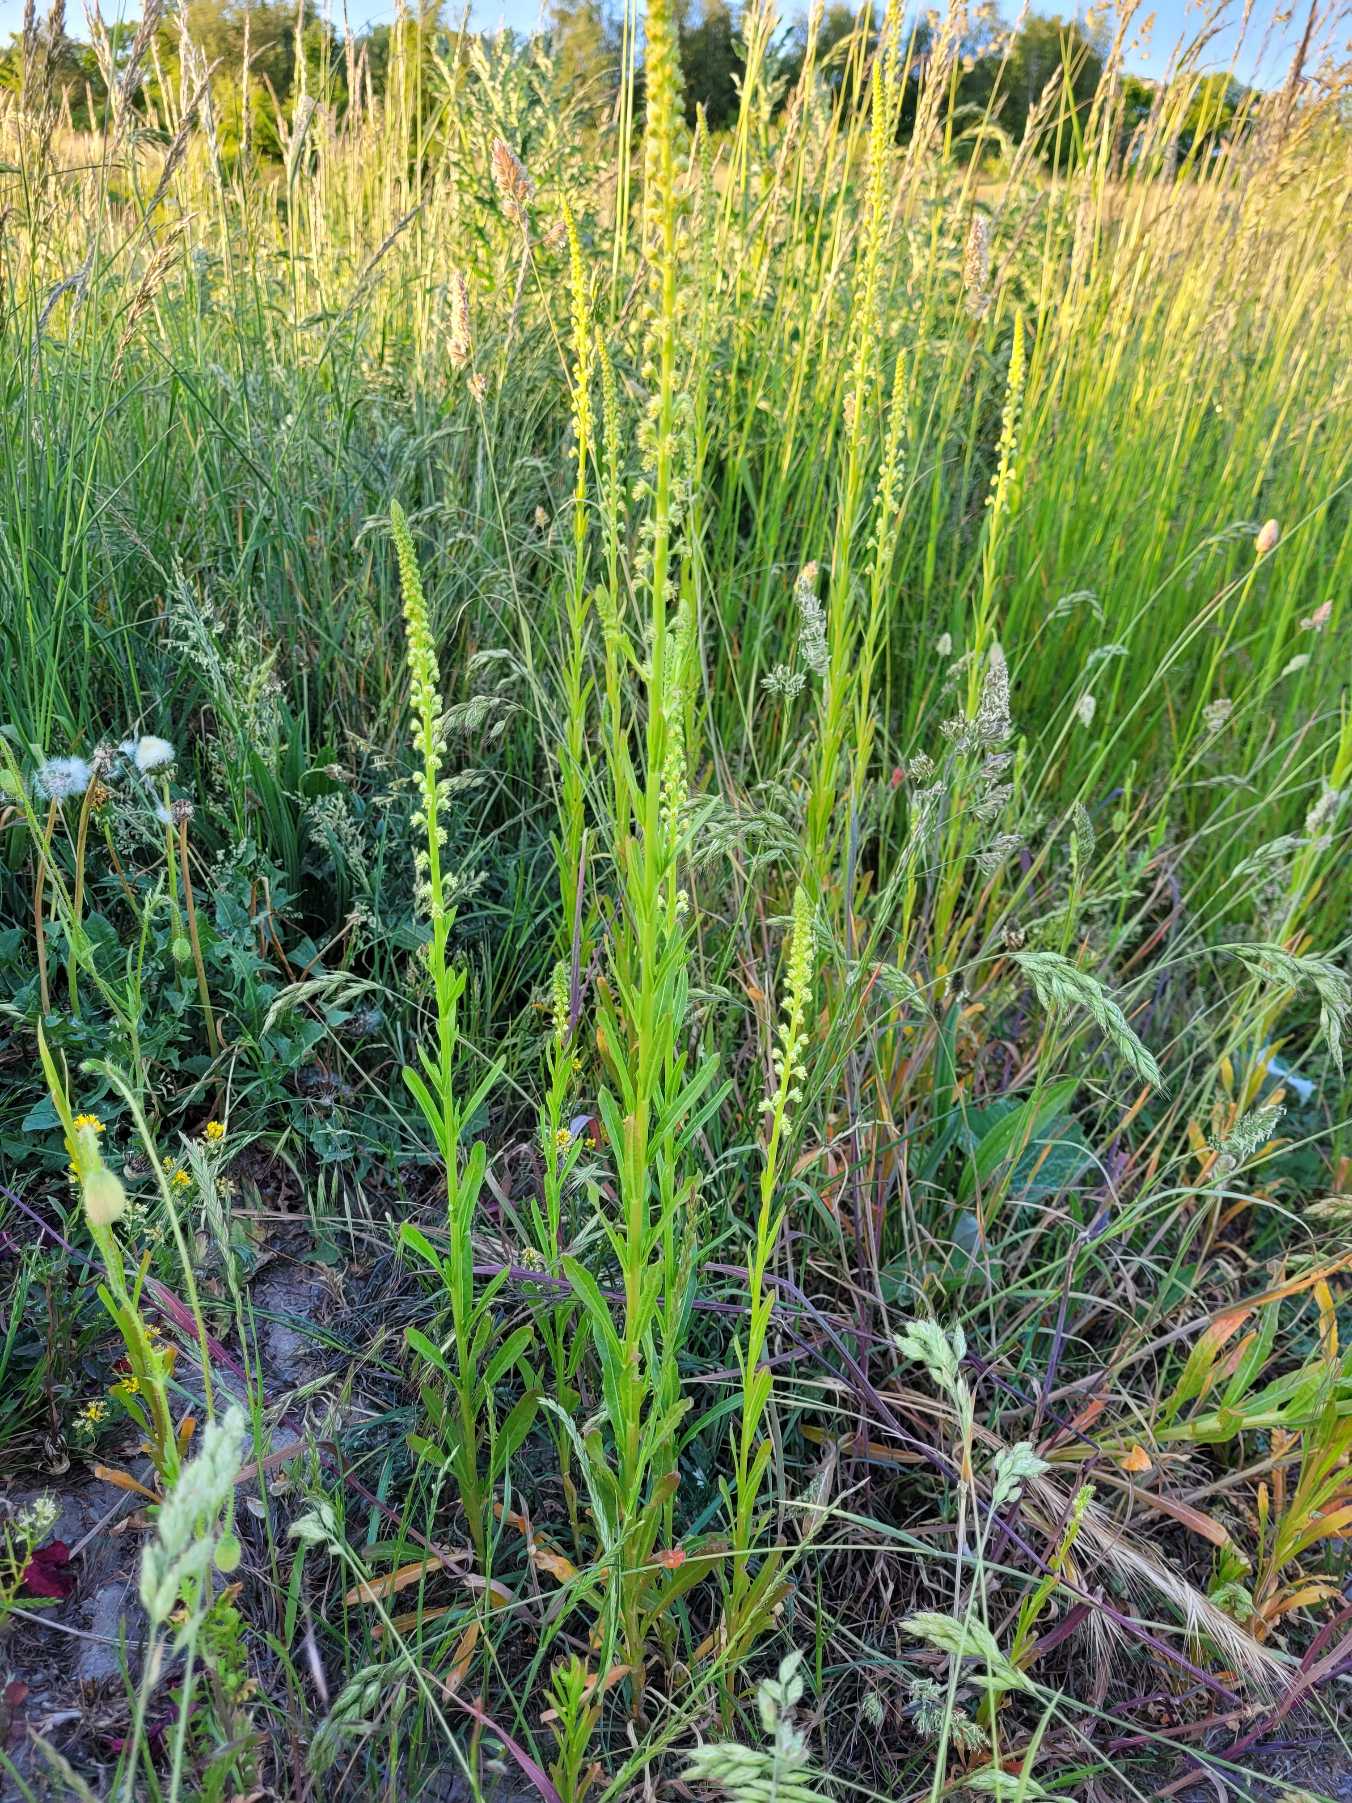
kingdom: Plantae
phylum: Tracheophyta
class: Magnoliopsida
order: Brassicales
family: Resedaceae
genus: Reseda
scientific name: Reseda luteola
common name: Farve-reseda
